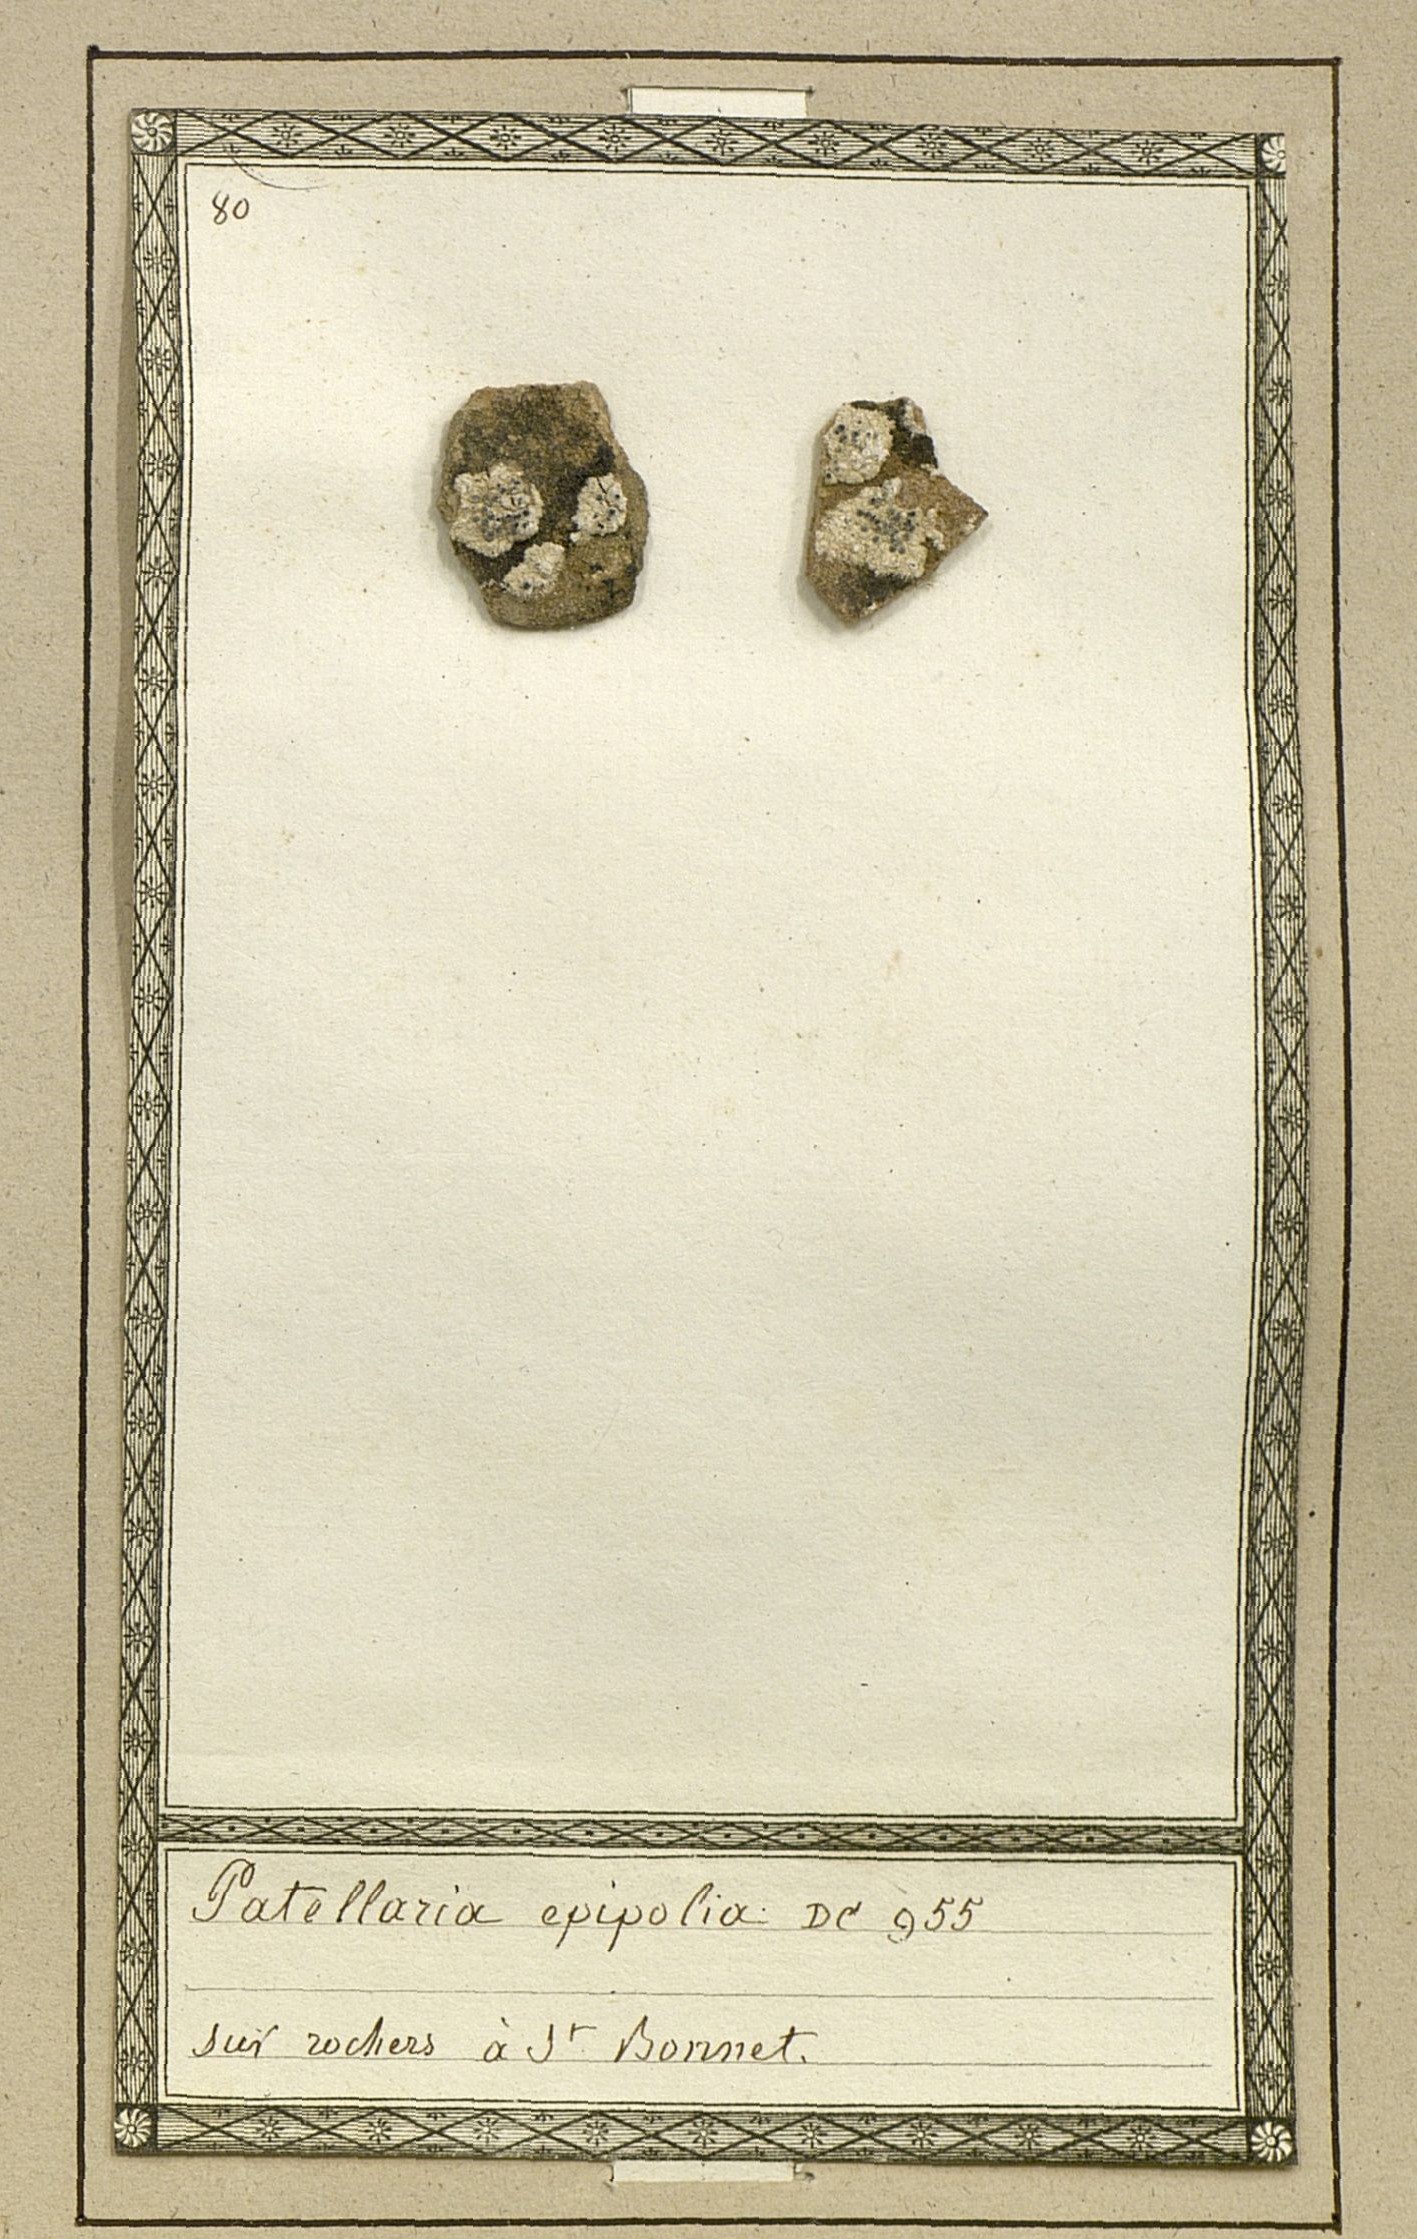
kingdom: Fungi
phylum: Ascomycota
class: Lecanoromycetes
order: Caliciales
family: Caliciaceae
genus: Diplotomma
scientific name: Diplotomma epipolium
